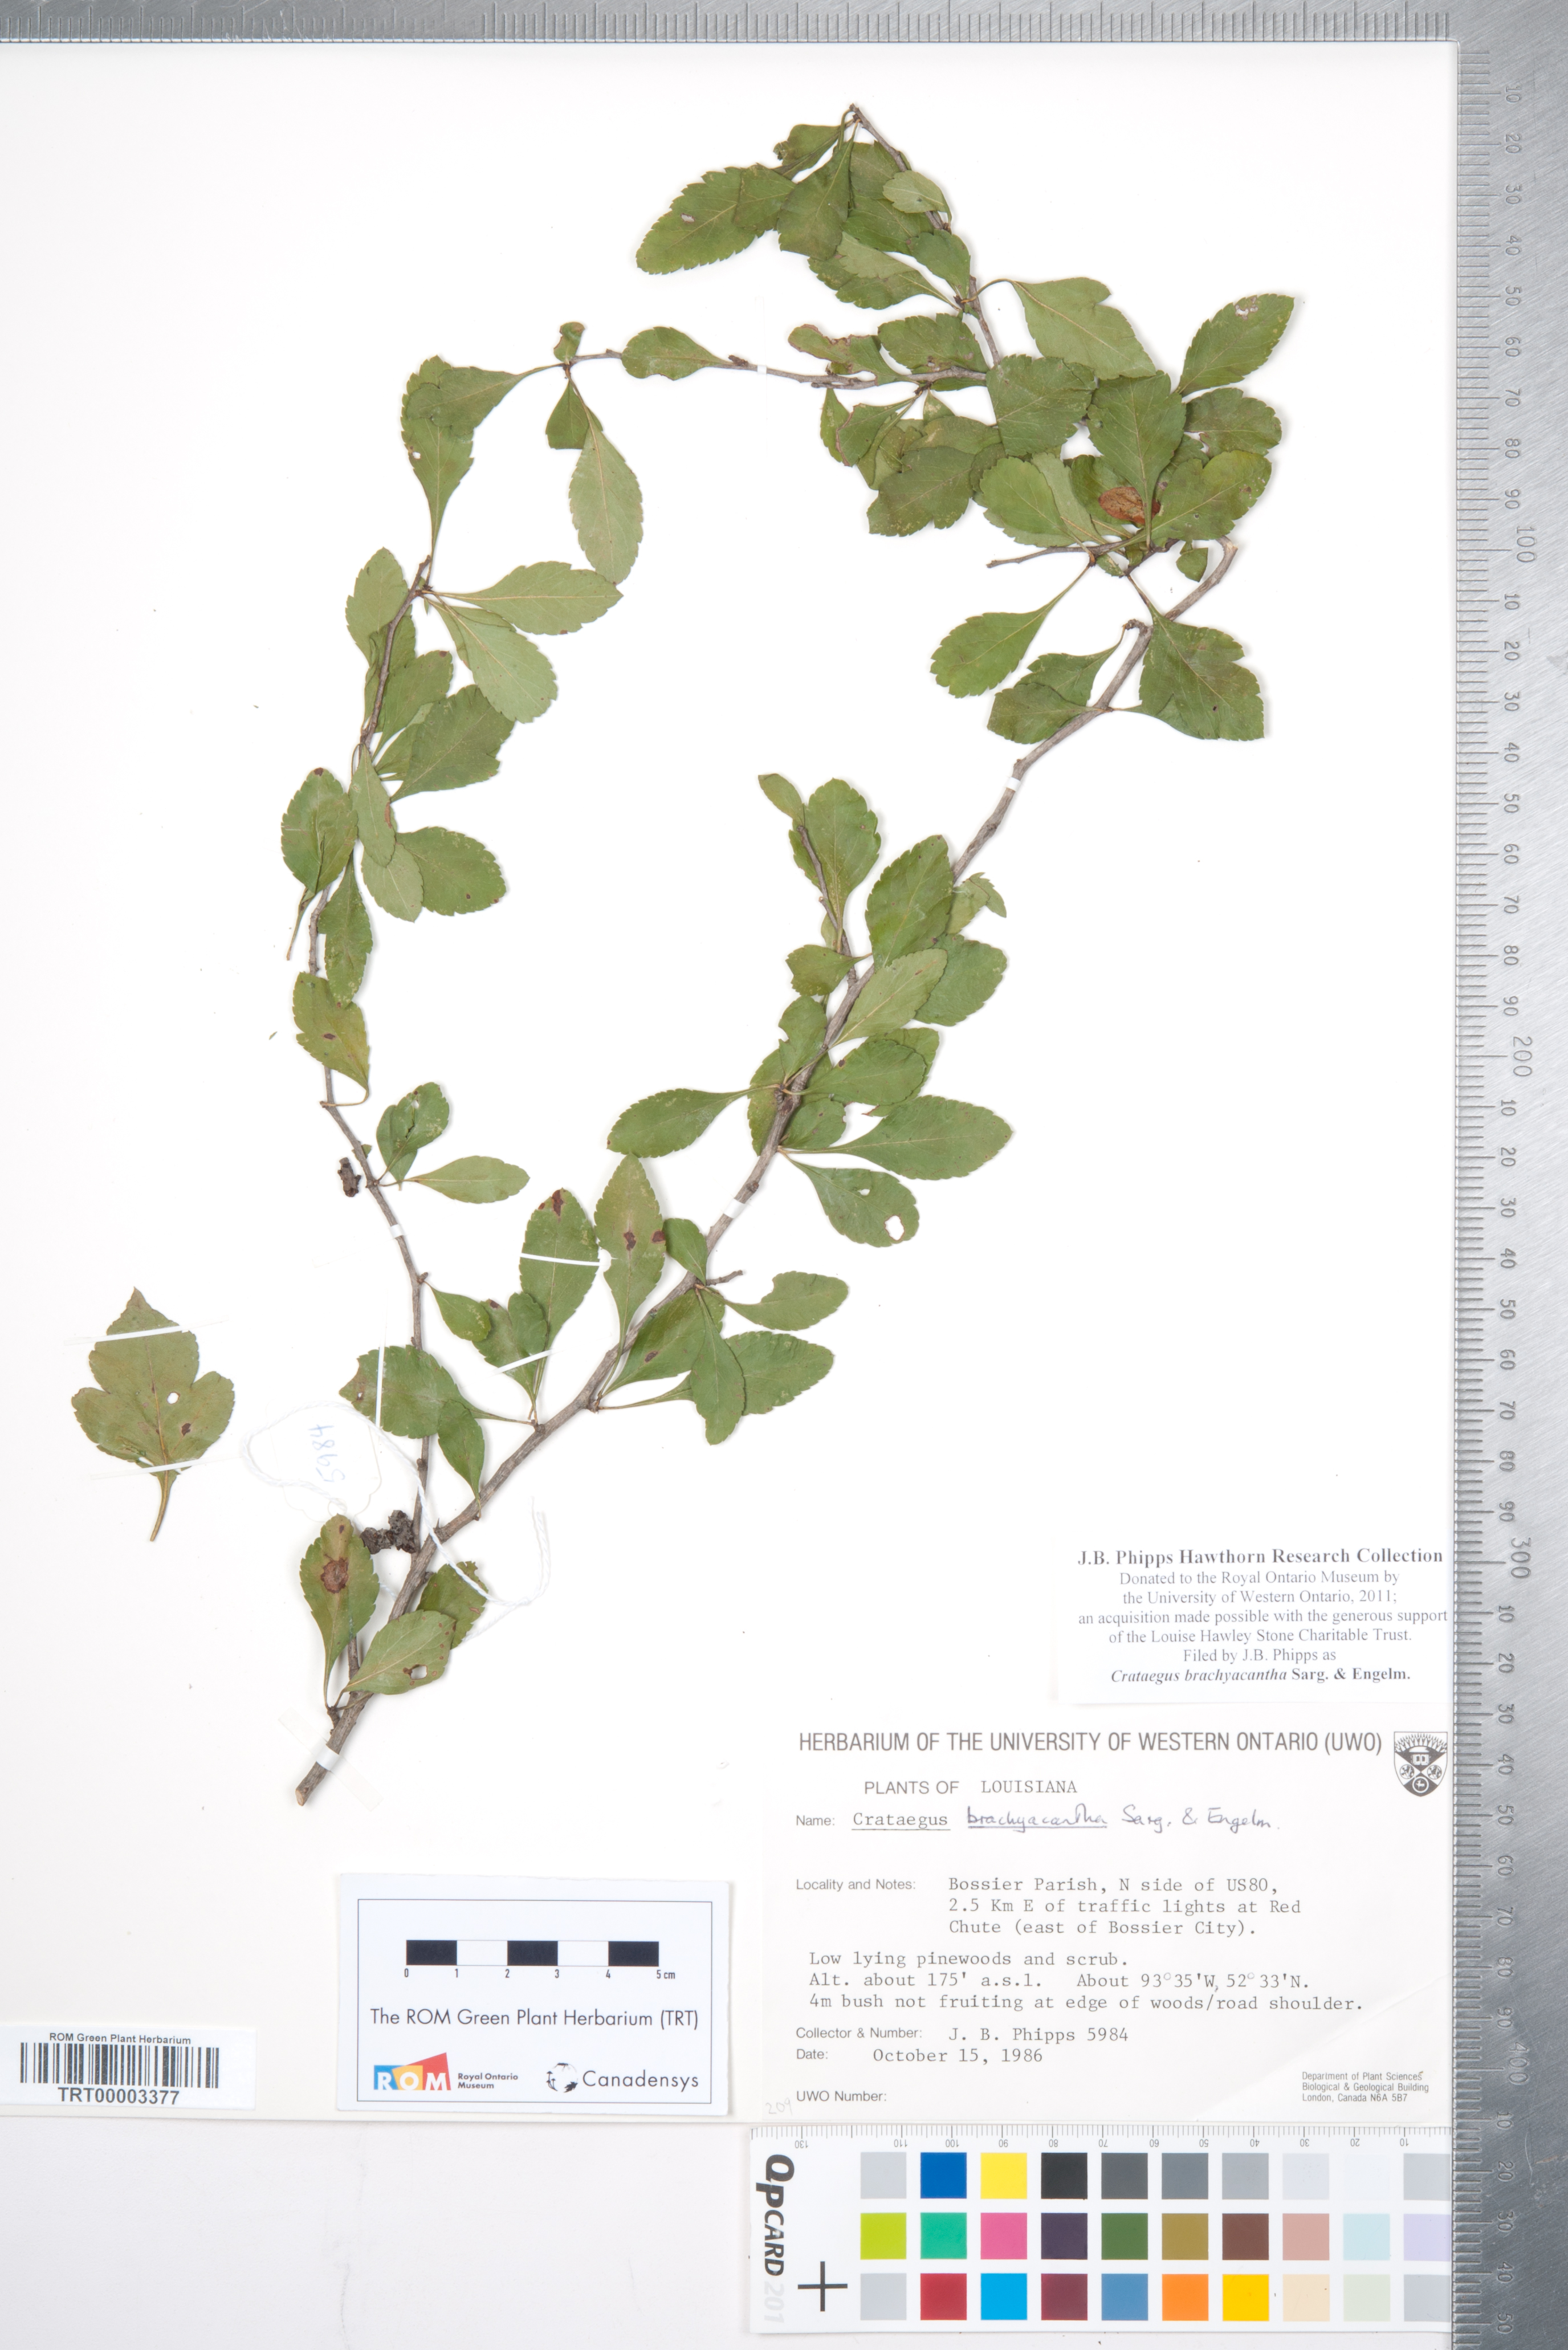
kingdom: Plantae
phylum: Tracheophyta
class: Magnoliopsida
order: Rosales
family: Rosaceae
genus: Crataegus
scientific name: Crataegus brachyacantha
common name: Blueberry-hawthorn
